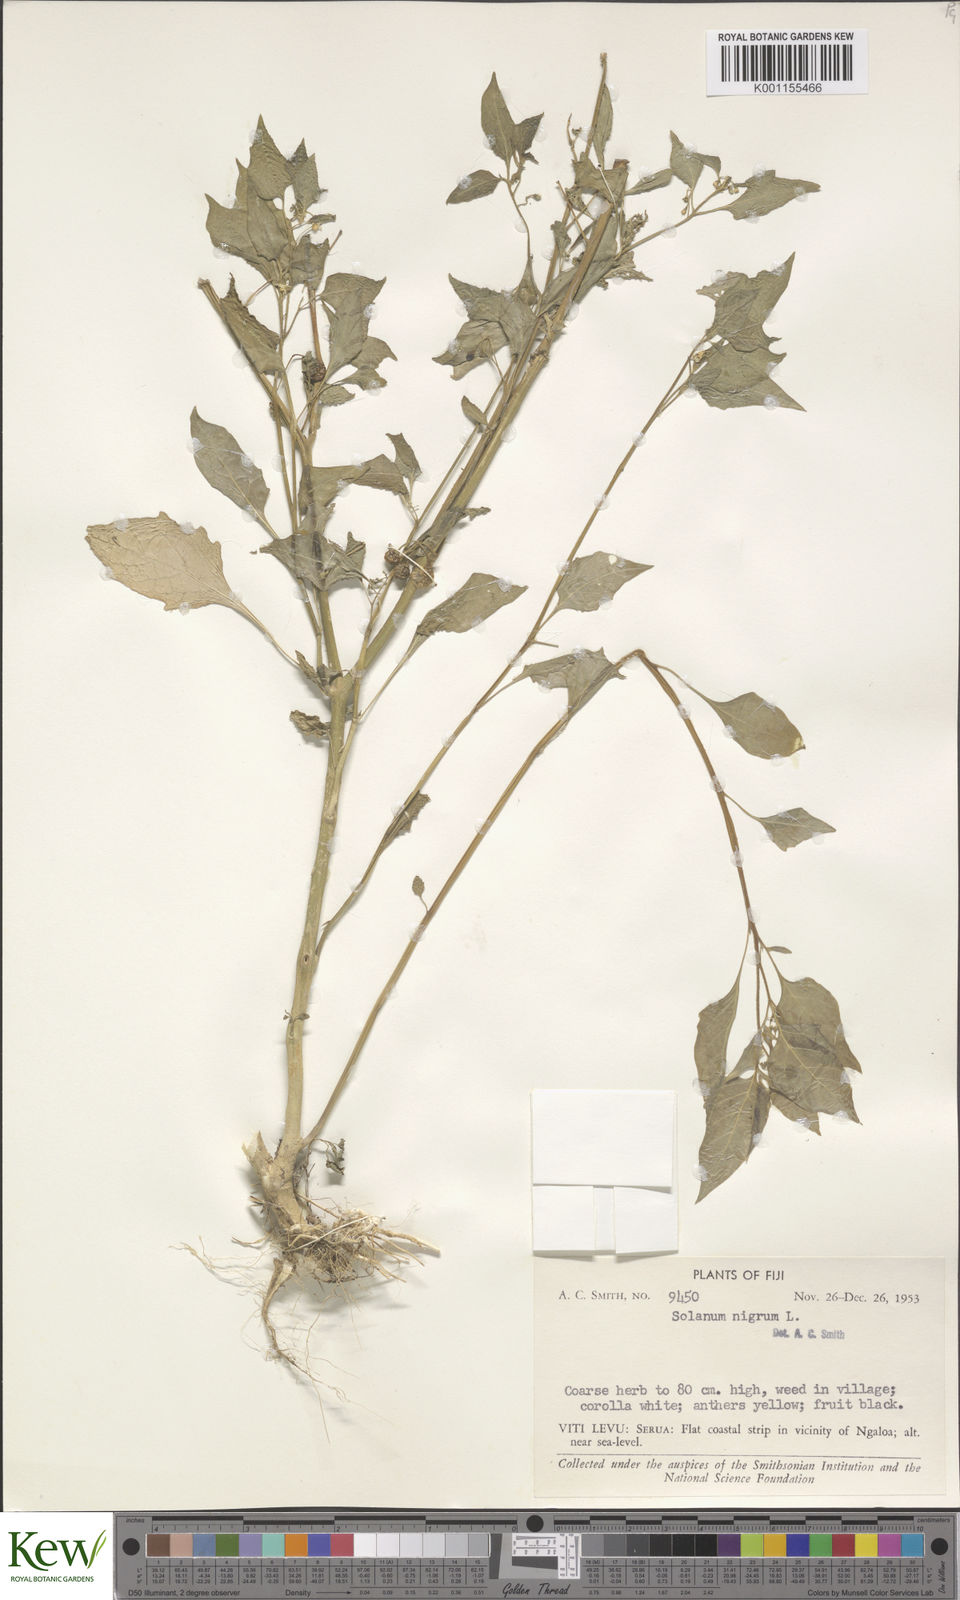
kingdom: Plantae
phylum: Tracheophyta
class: Magnoliopsida
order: Solanales
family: Solanaceae
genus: Solanum
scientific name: Solanum americanum
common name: American black nightshade
